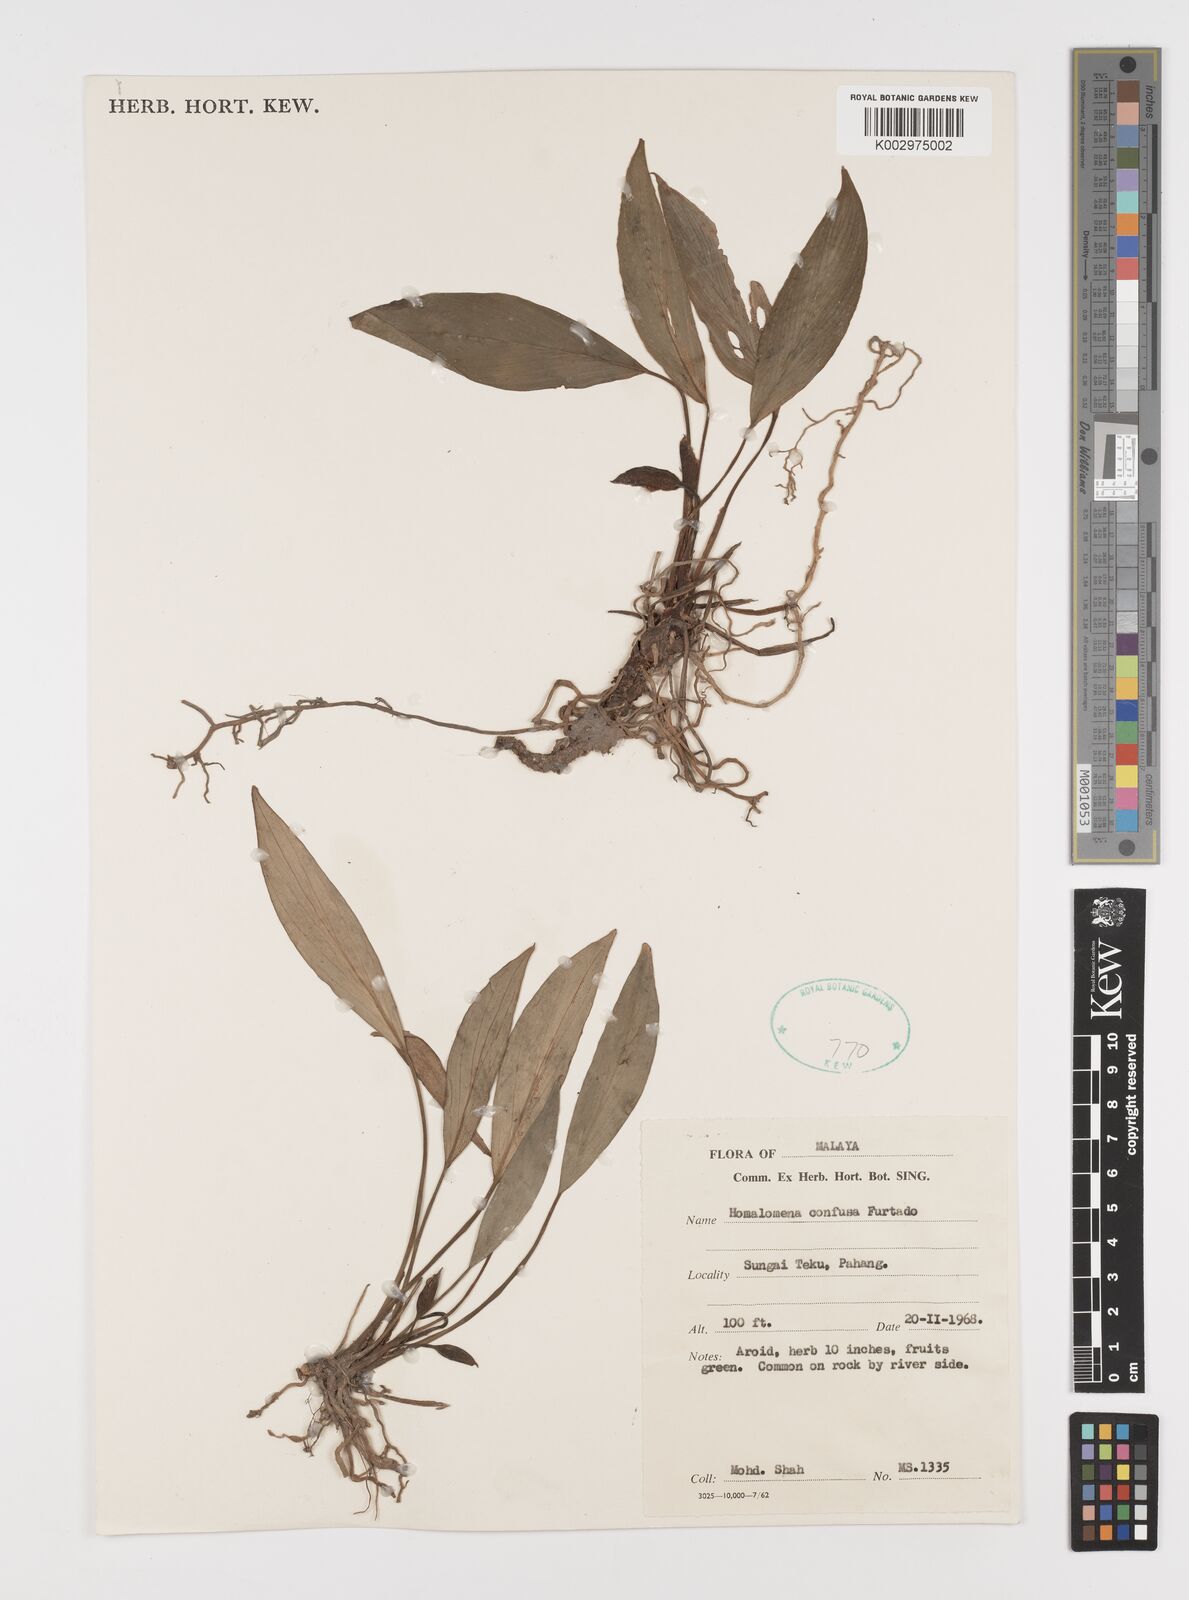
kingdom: Plantae
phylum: Tracheophyta
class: Liliopsida
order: Alismatales
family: Araceae
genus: Homalomena
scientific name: Homalomena confusa
